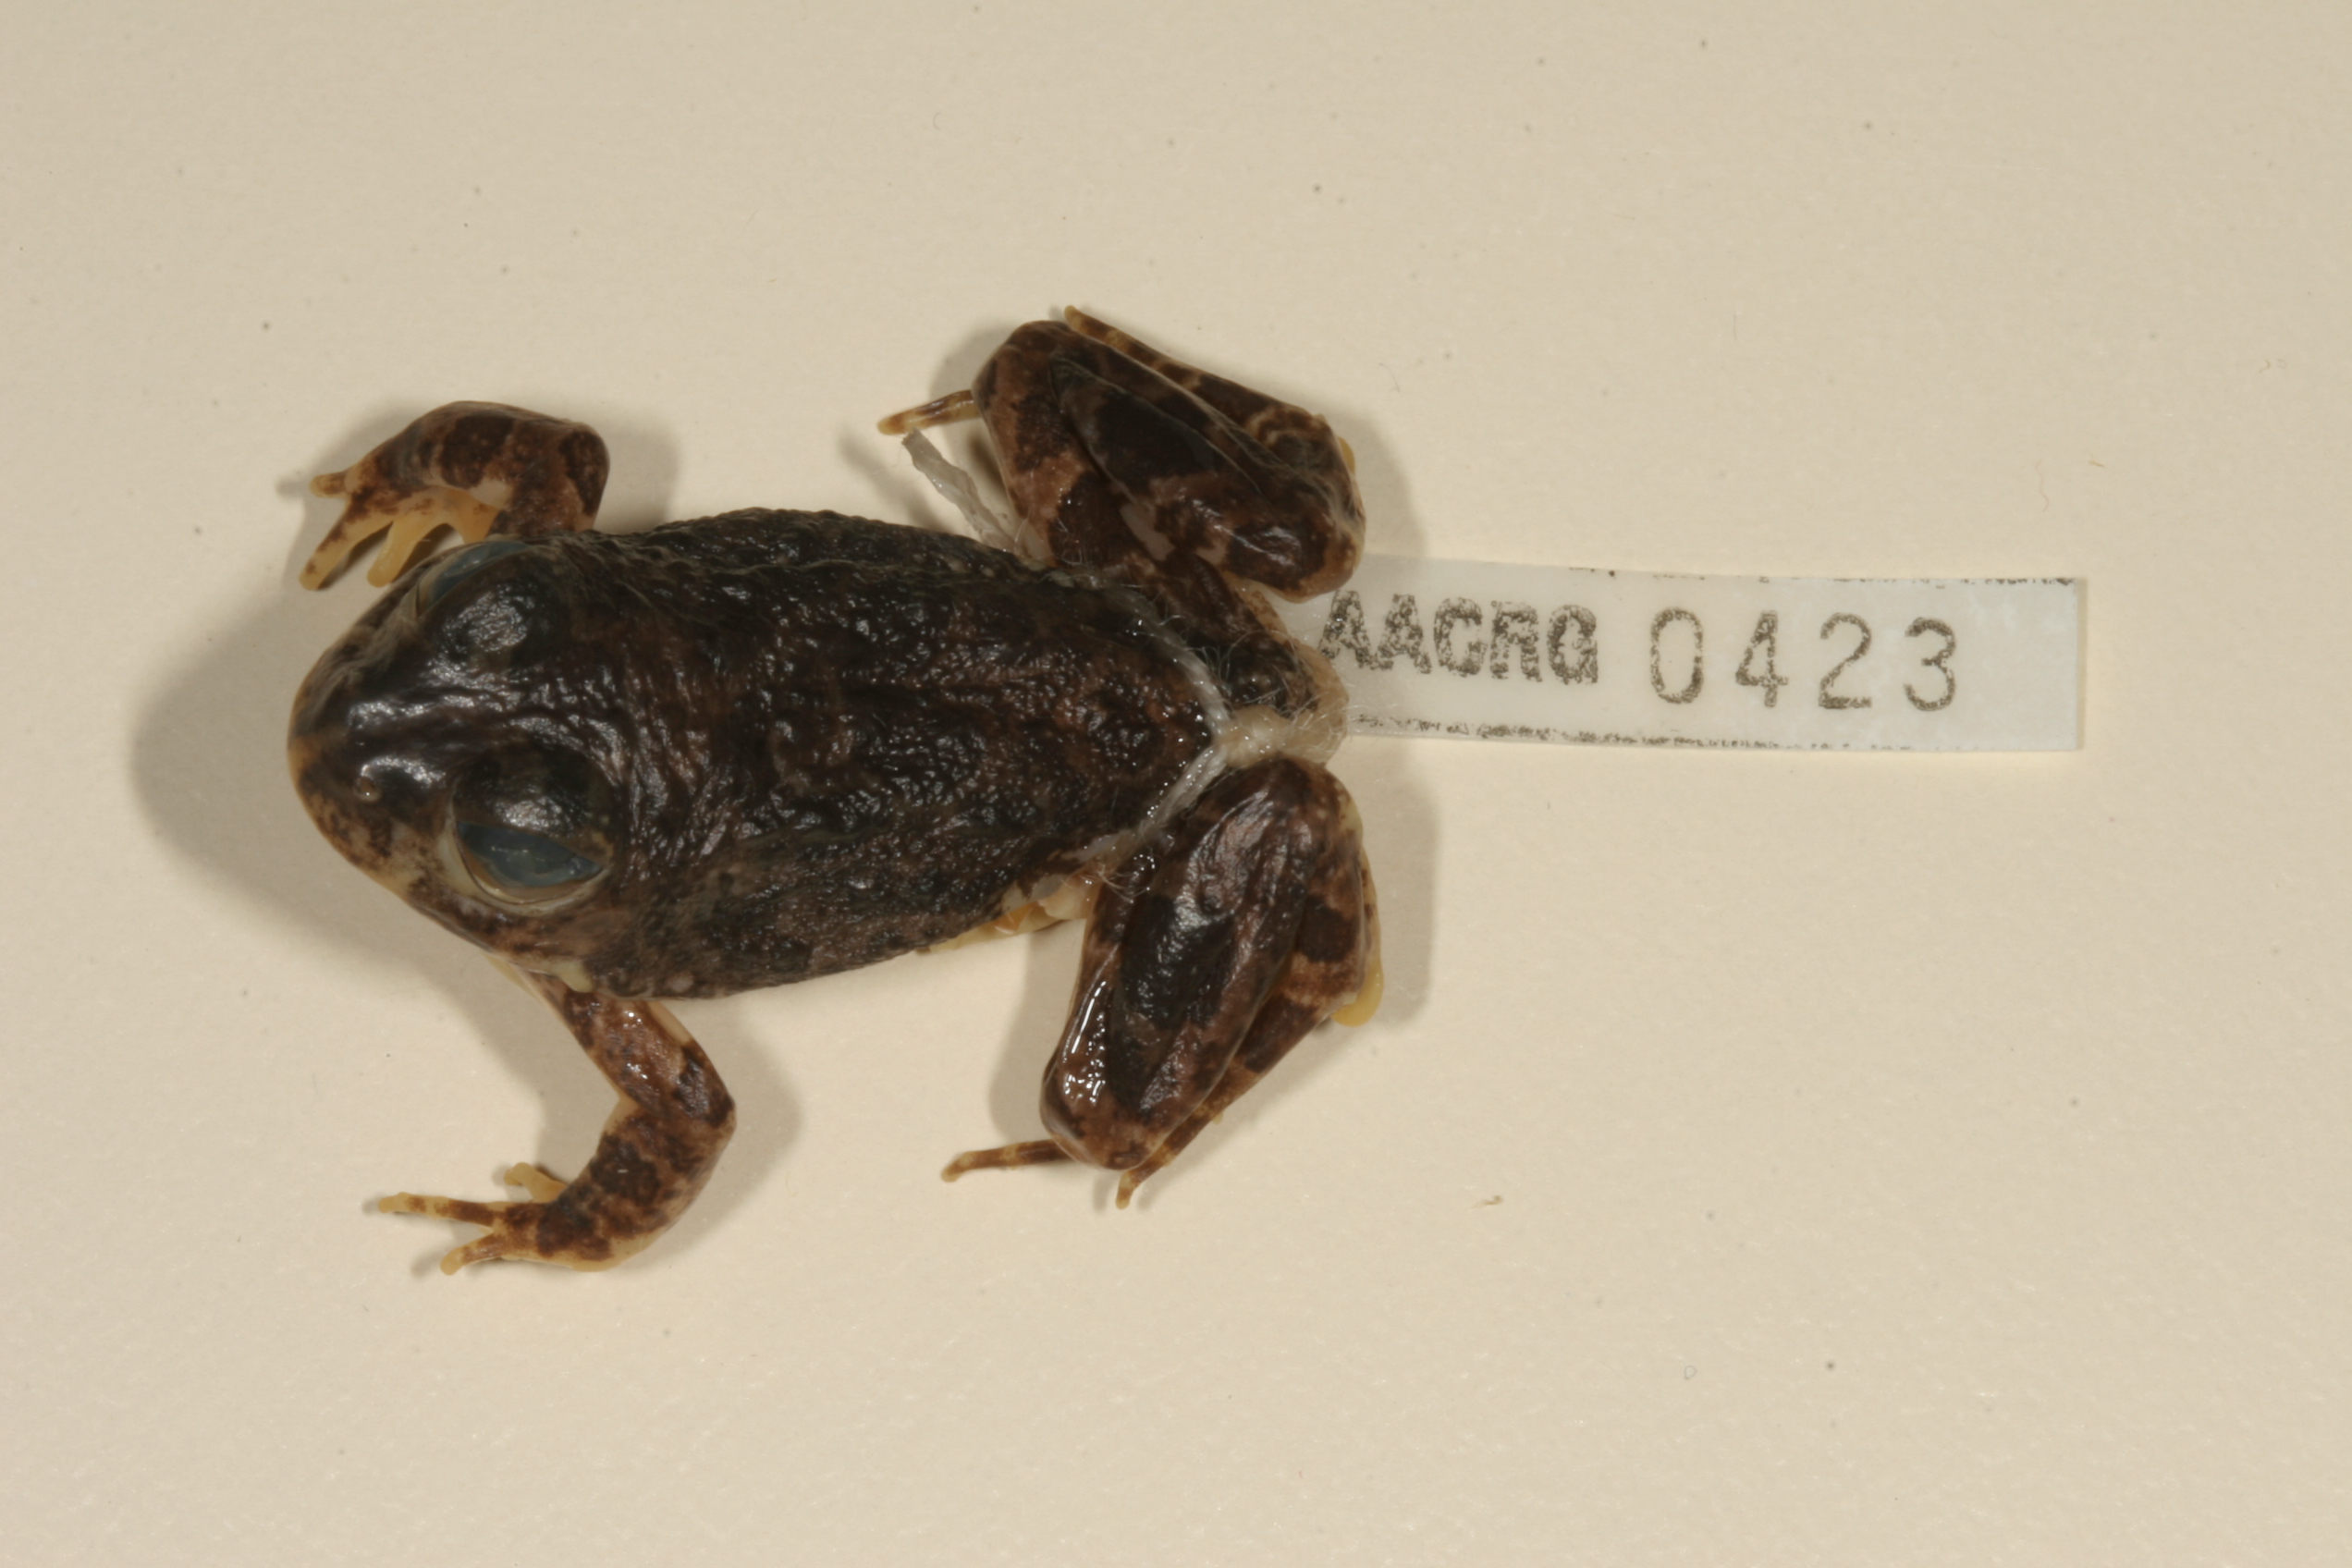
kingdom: Animalia
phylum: Chordata
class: Amphibia
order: Anura
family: Pyxicephalidae
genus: Tomopterna
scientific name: Tomopterna cryptotis
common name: Catequero bullfrog
